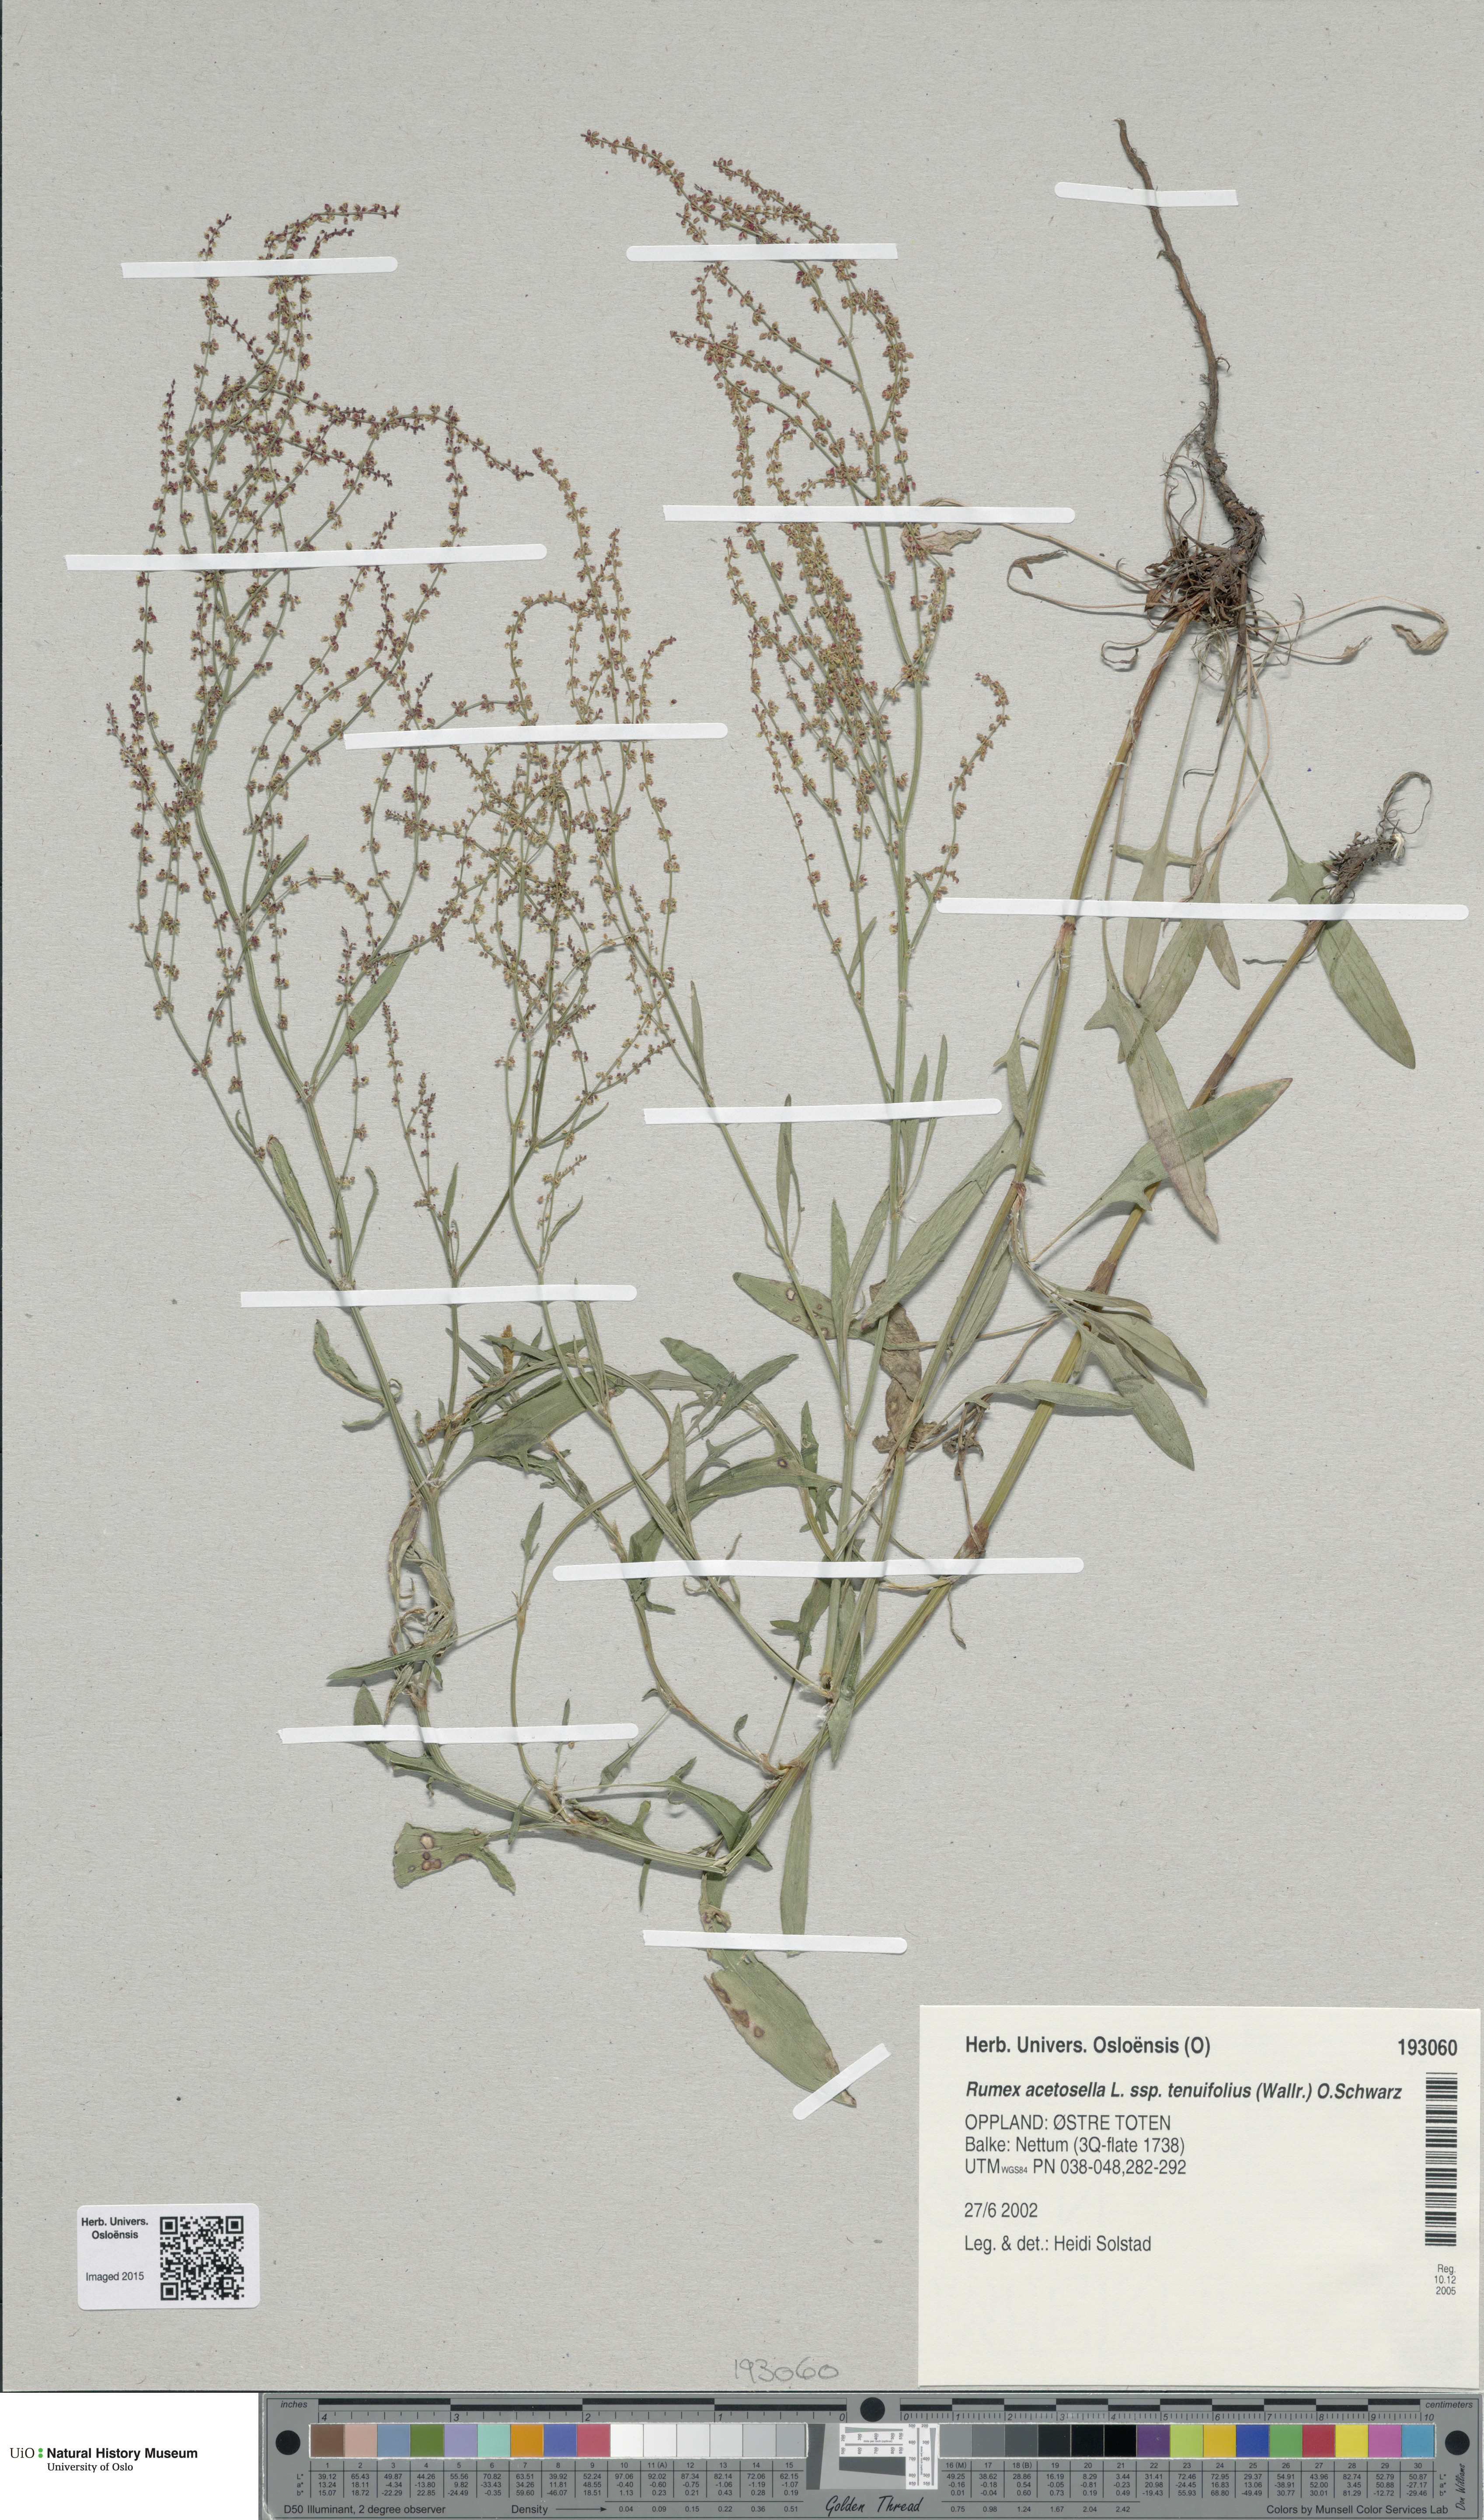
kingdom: Plantae
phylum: Tracheophyta
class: Magnoliopsida
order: Caryophyllales
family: Polygonaceae
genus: Rumex
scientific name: Rumex acetosella
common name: Common sheep sorrel
